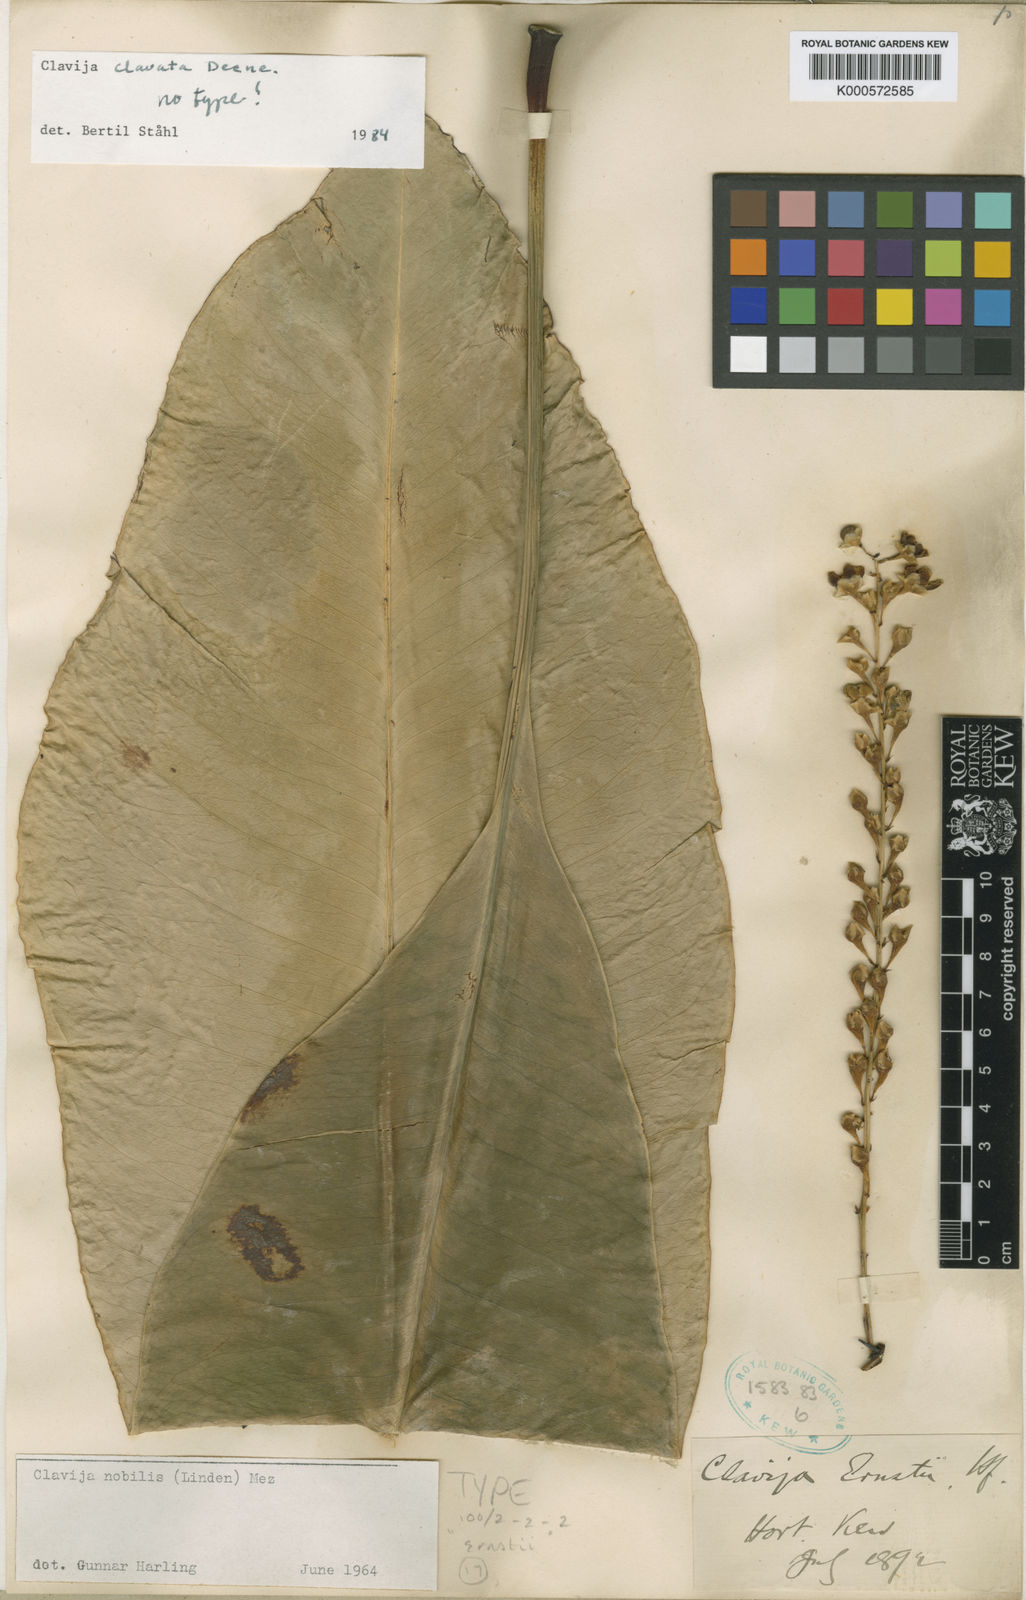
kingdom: Plantae
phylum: Tracheophyta
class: Magnoliopsida
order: Ericales
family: Primulaceae
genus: Clavija
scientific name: Clavija clavata
